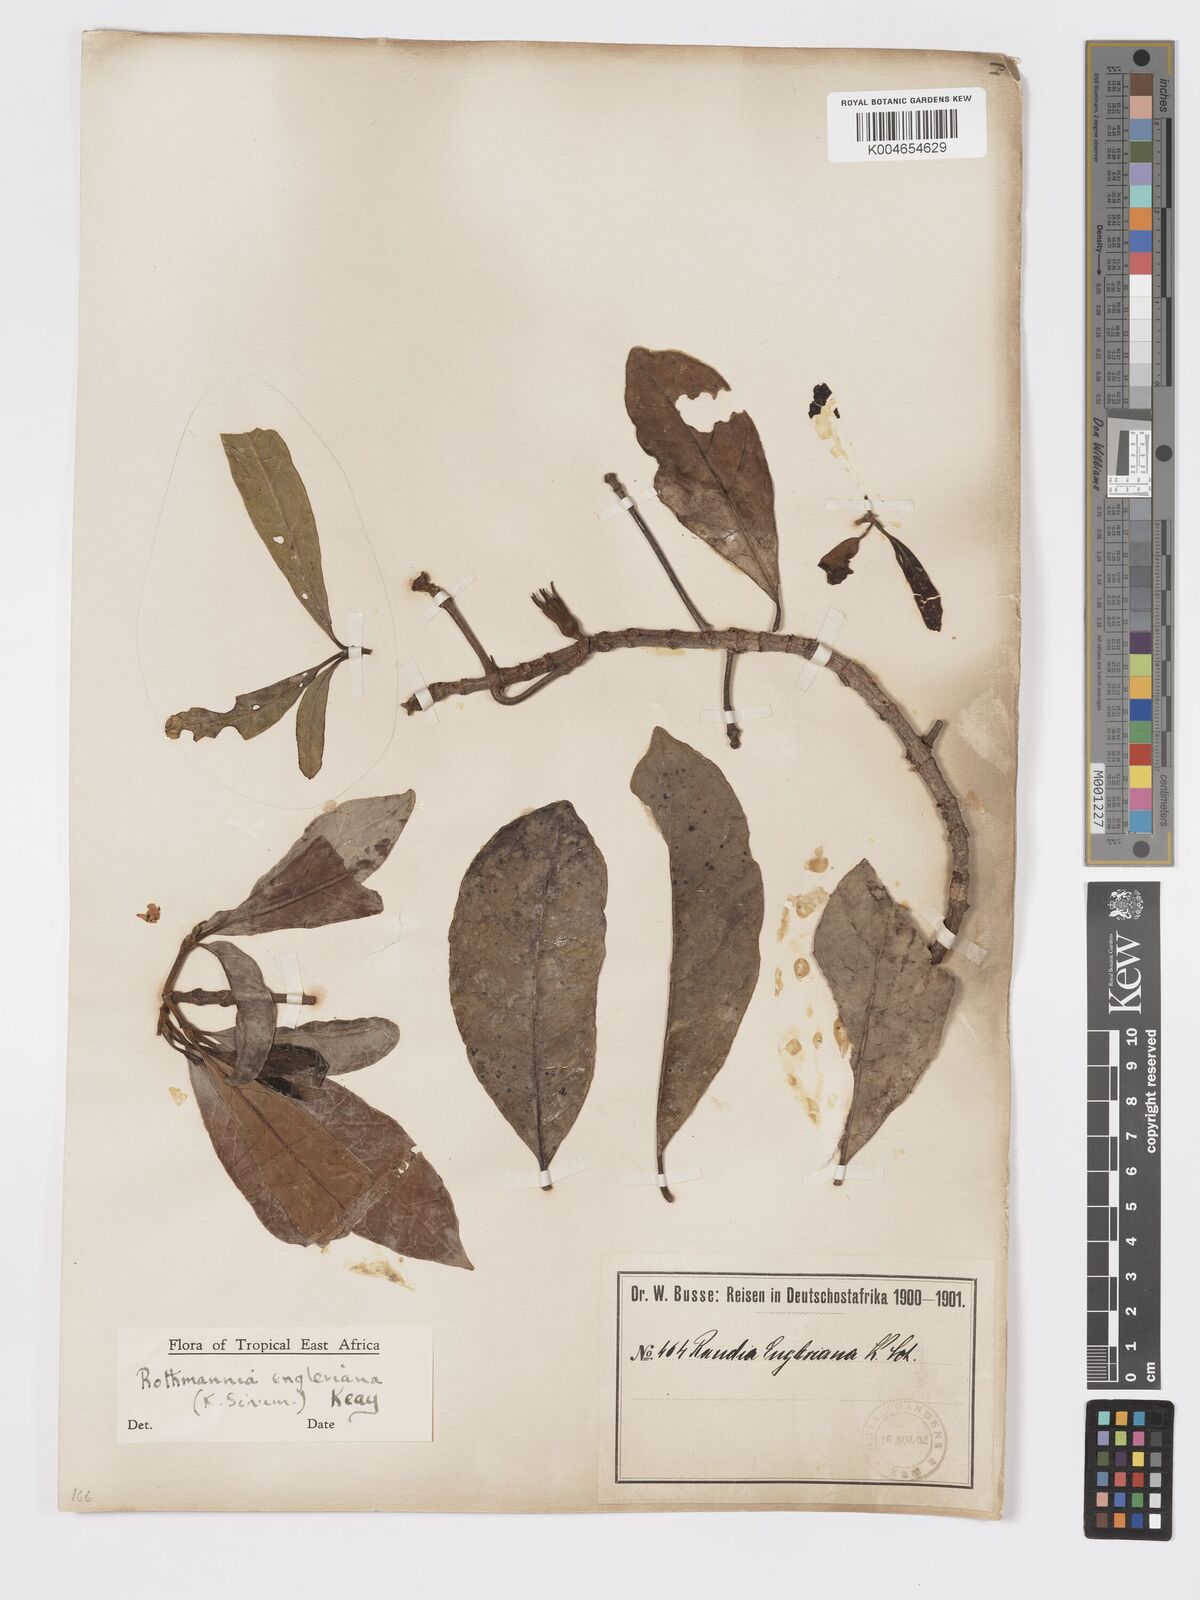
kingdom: Plantae
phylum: Tracheophyta
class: Magnoliopsida
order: Gentianales
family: Rubiaceae
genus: Rothmannia
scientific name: Rothmannia engleriana
